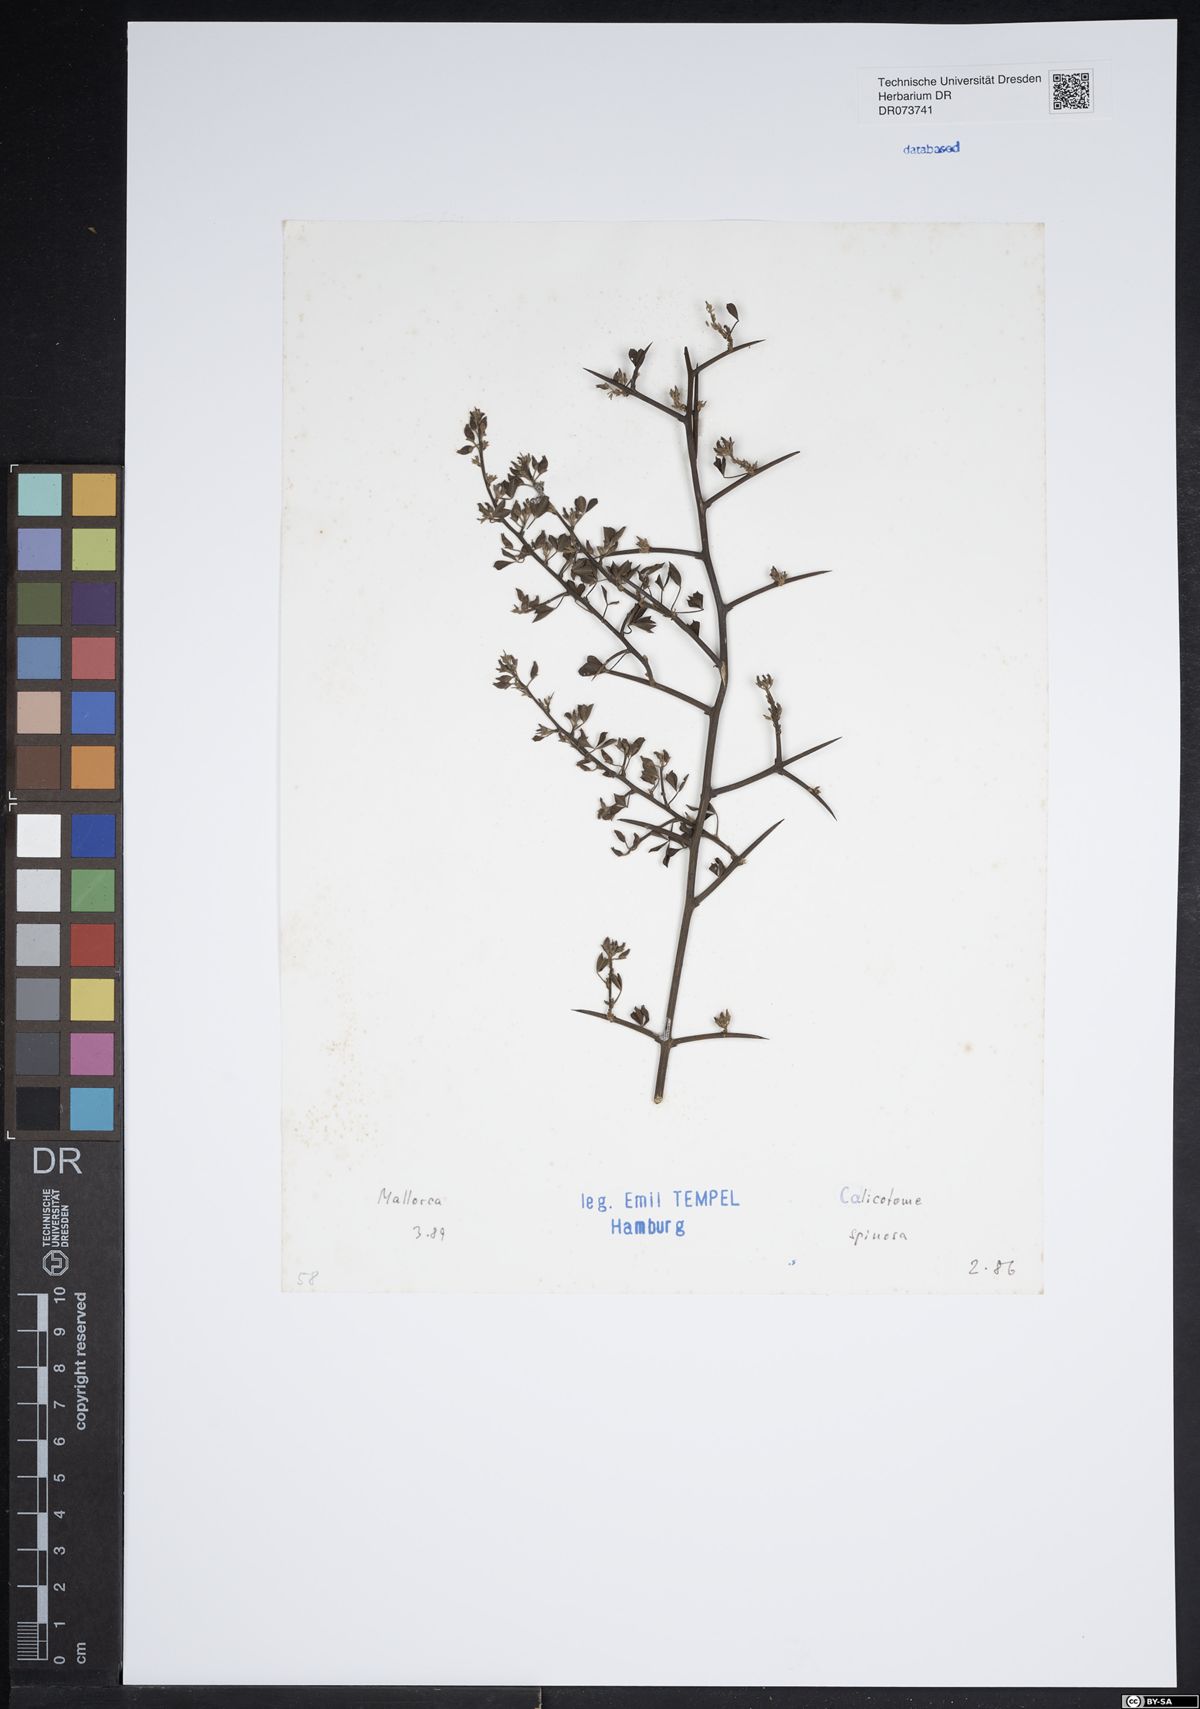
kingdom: Plantae
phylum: Tracheophyta
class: Magnoliopsida
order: Fabales
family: Fabaceae
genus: Calicotome
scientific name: Calicotome spinosa
